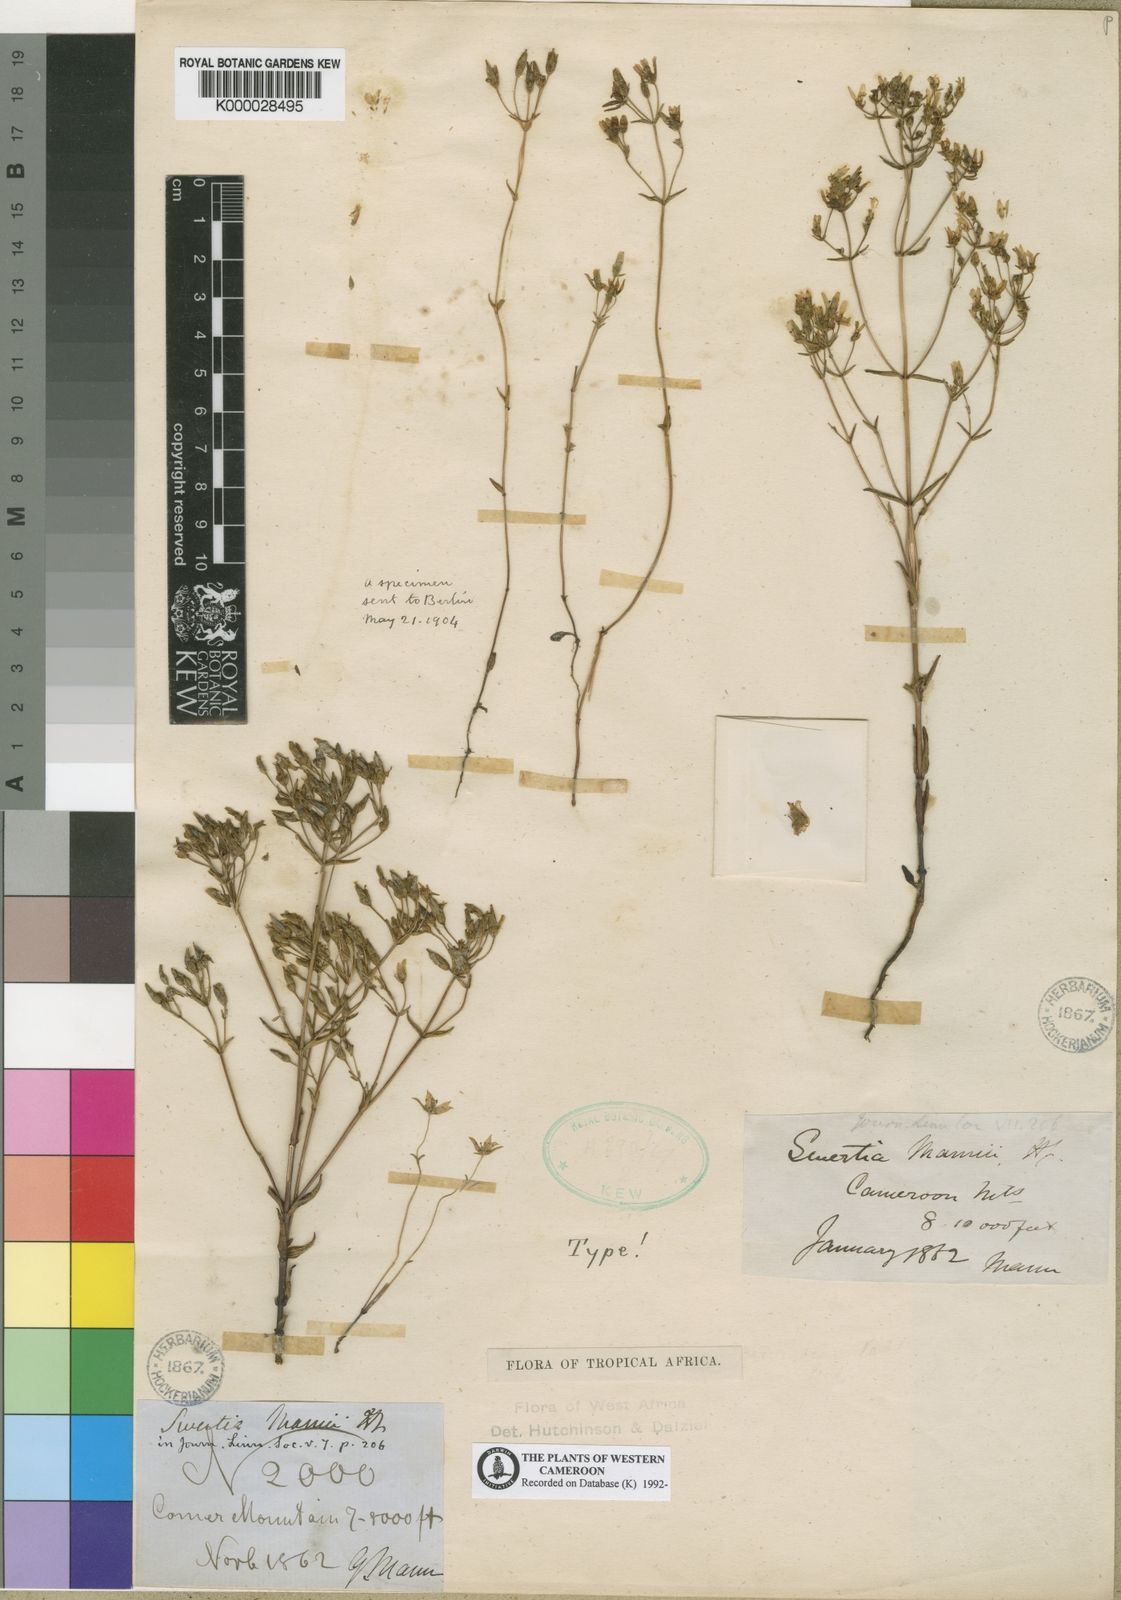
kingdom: Plantae
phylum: Tracheophyta
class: Magnoliopsida
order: Gentianales
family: Gentianaceae
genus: Swertia
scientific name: Swertia mannii
